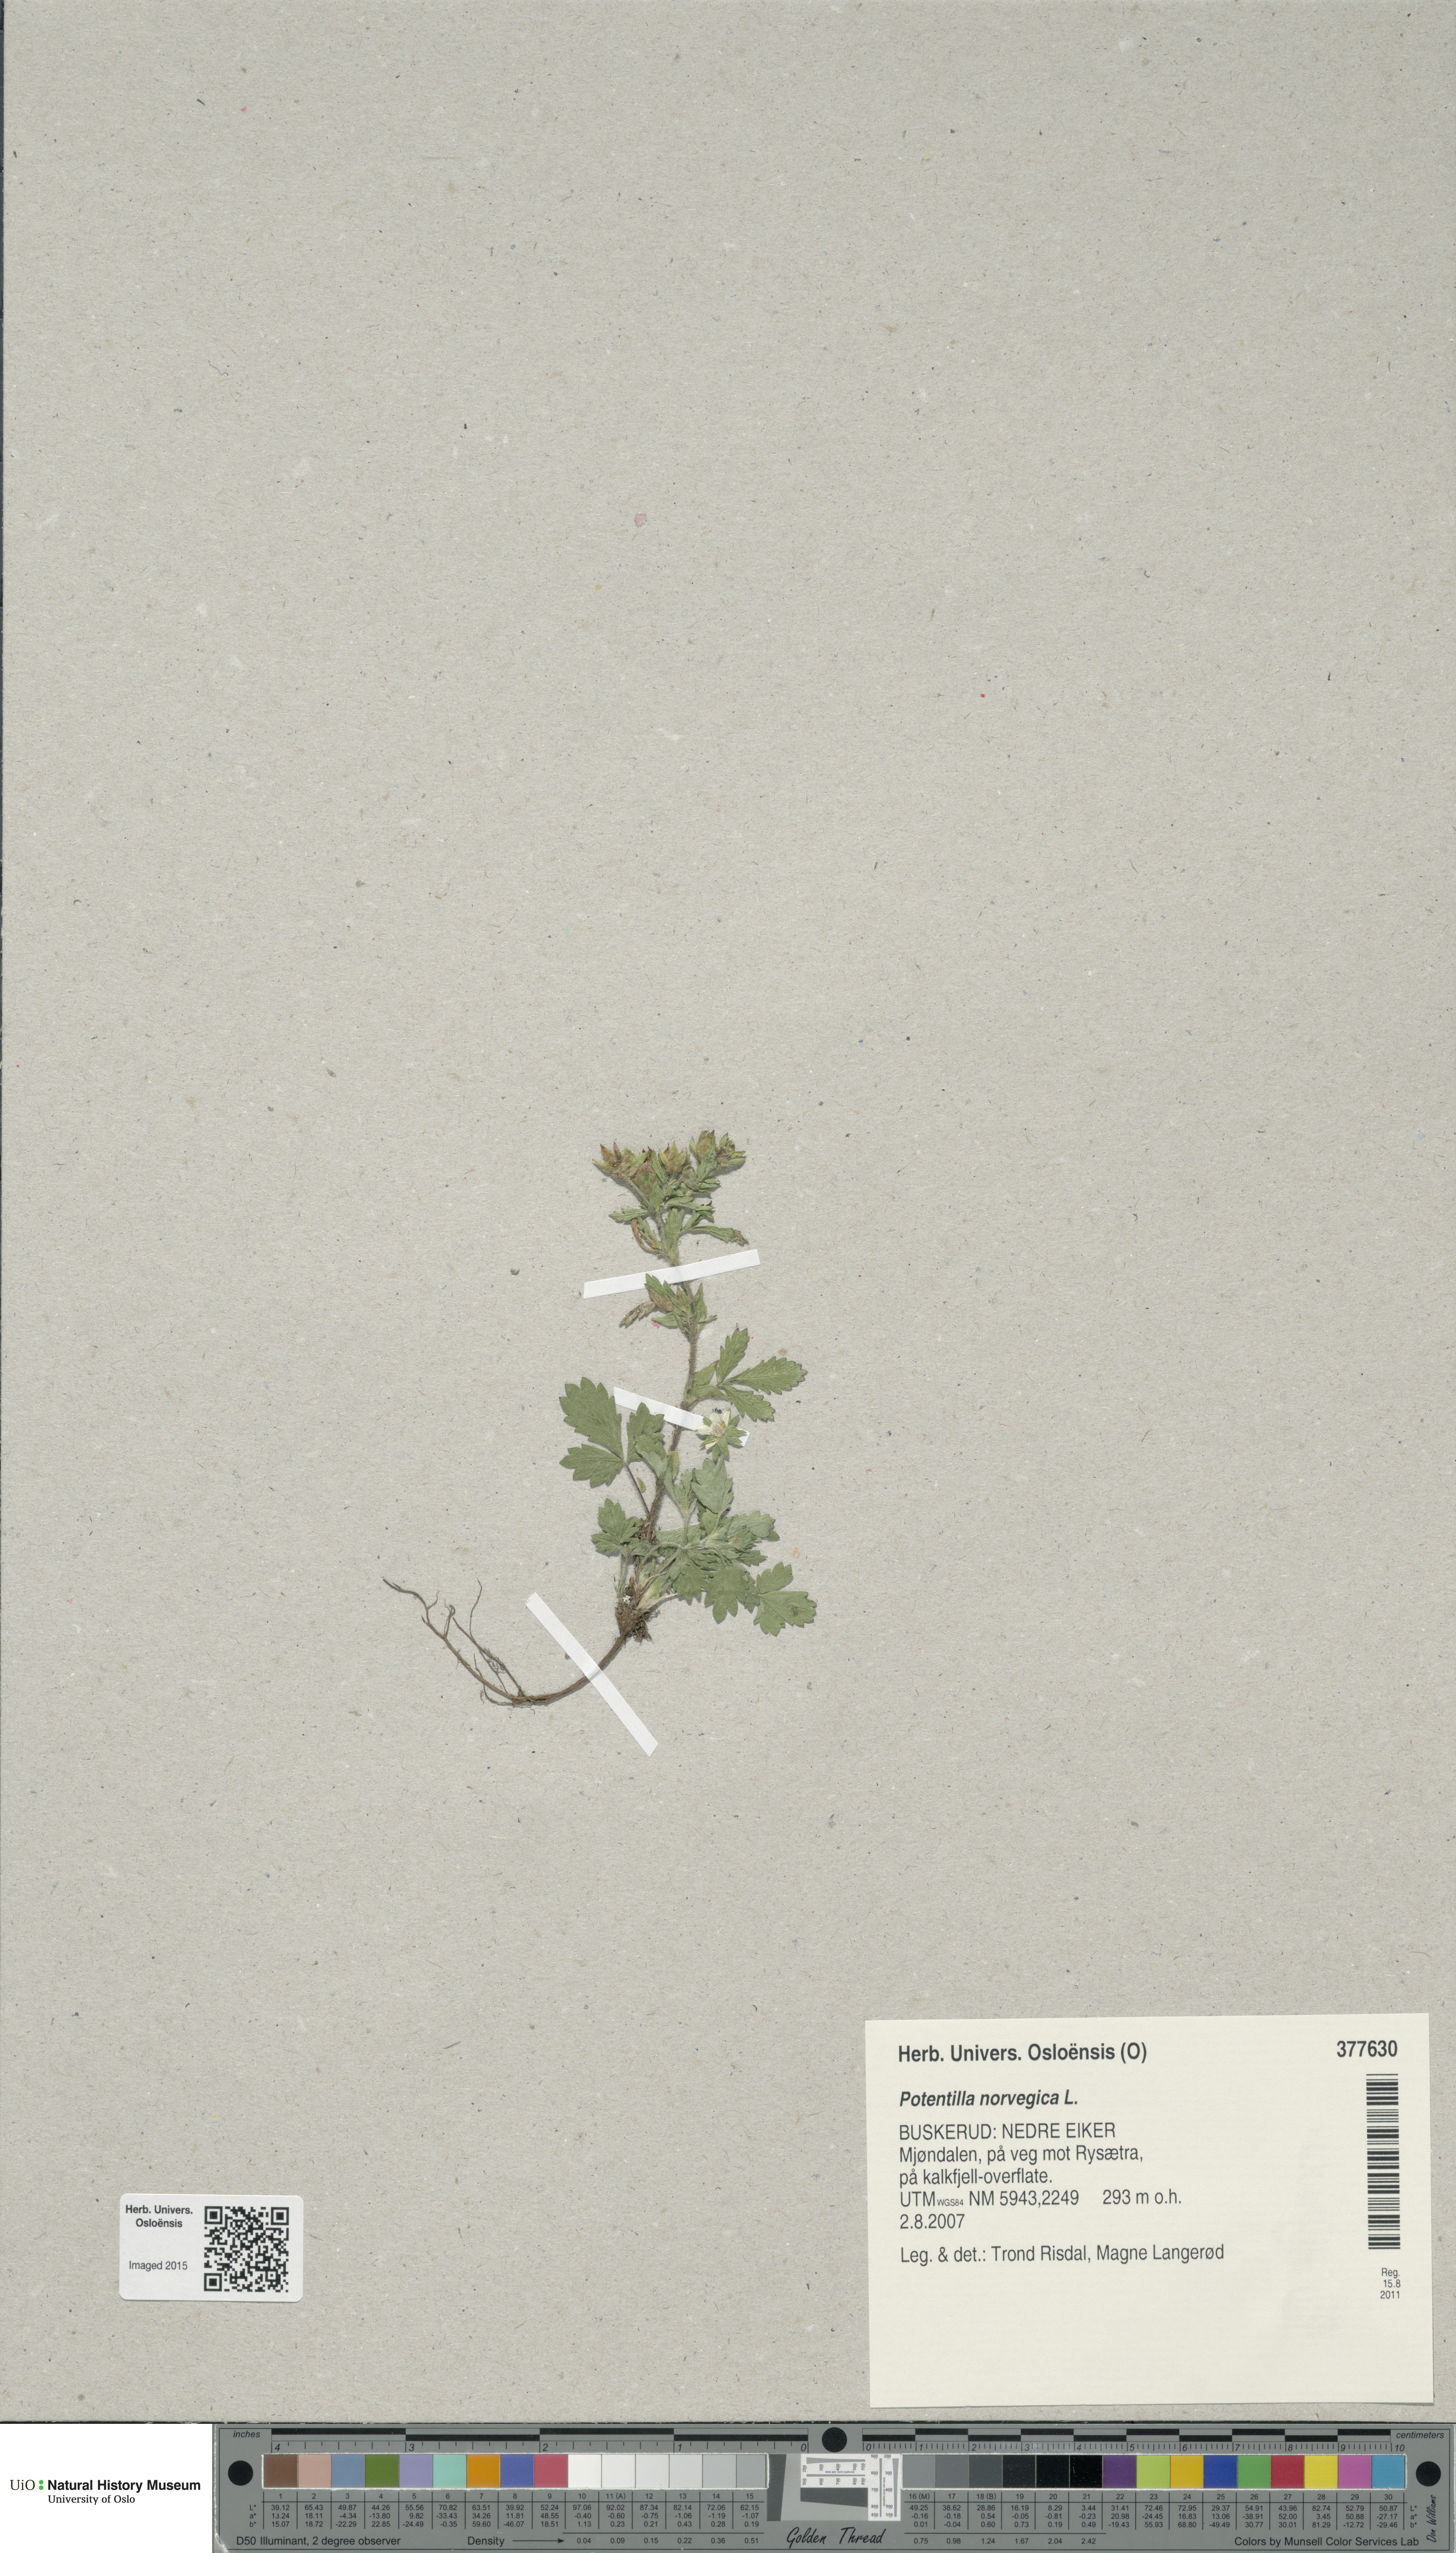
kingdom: Plantae
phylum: Tracheophyta
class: Magnoliopsida
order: Rosales
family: Rosaceae
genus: Potentilla
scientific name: Potentilla norvegica
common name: Ternate-leaved cinquefoil
